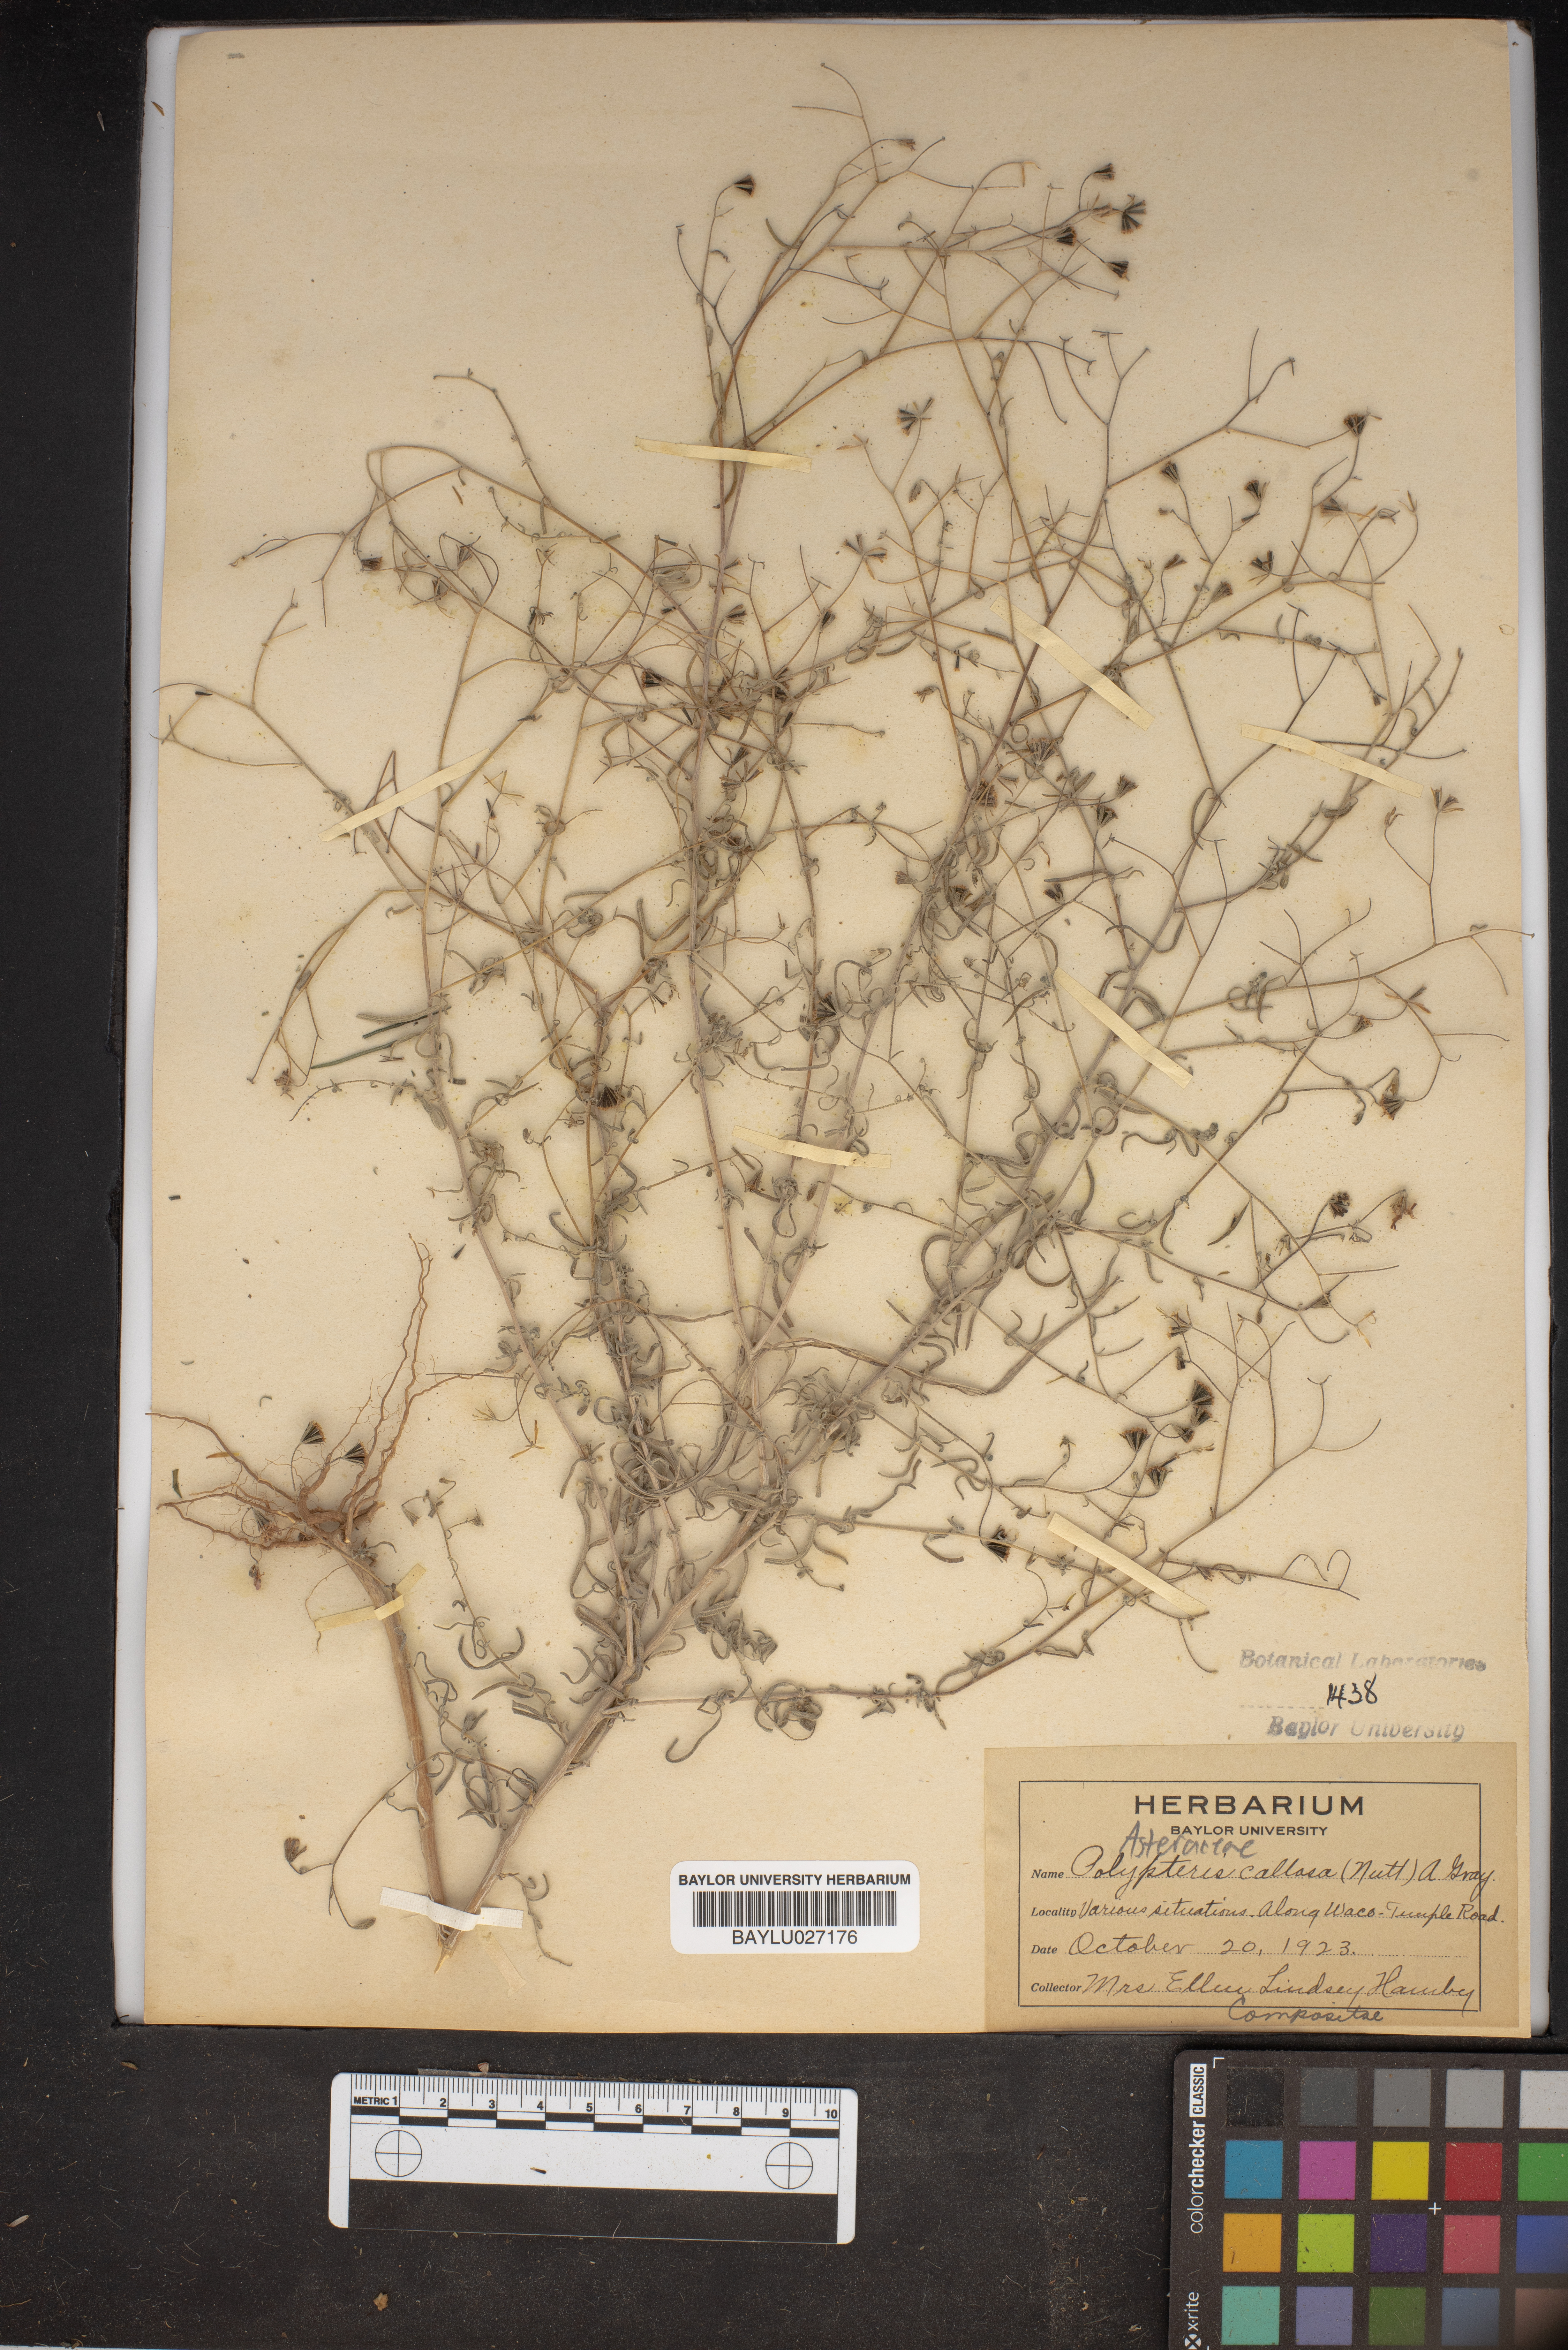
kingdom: Plantae
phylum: Tracheophyta
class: Magnoliopsida
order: Asterales
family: Asteraceae
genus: Palafoxia
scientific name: Palafoxia callosa
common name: Small palafox
